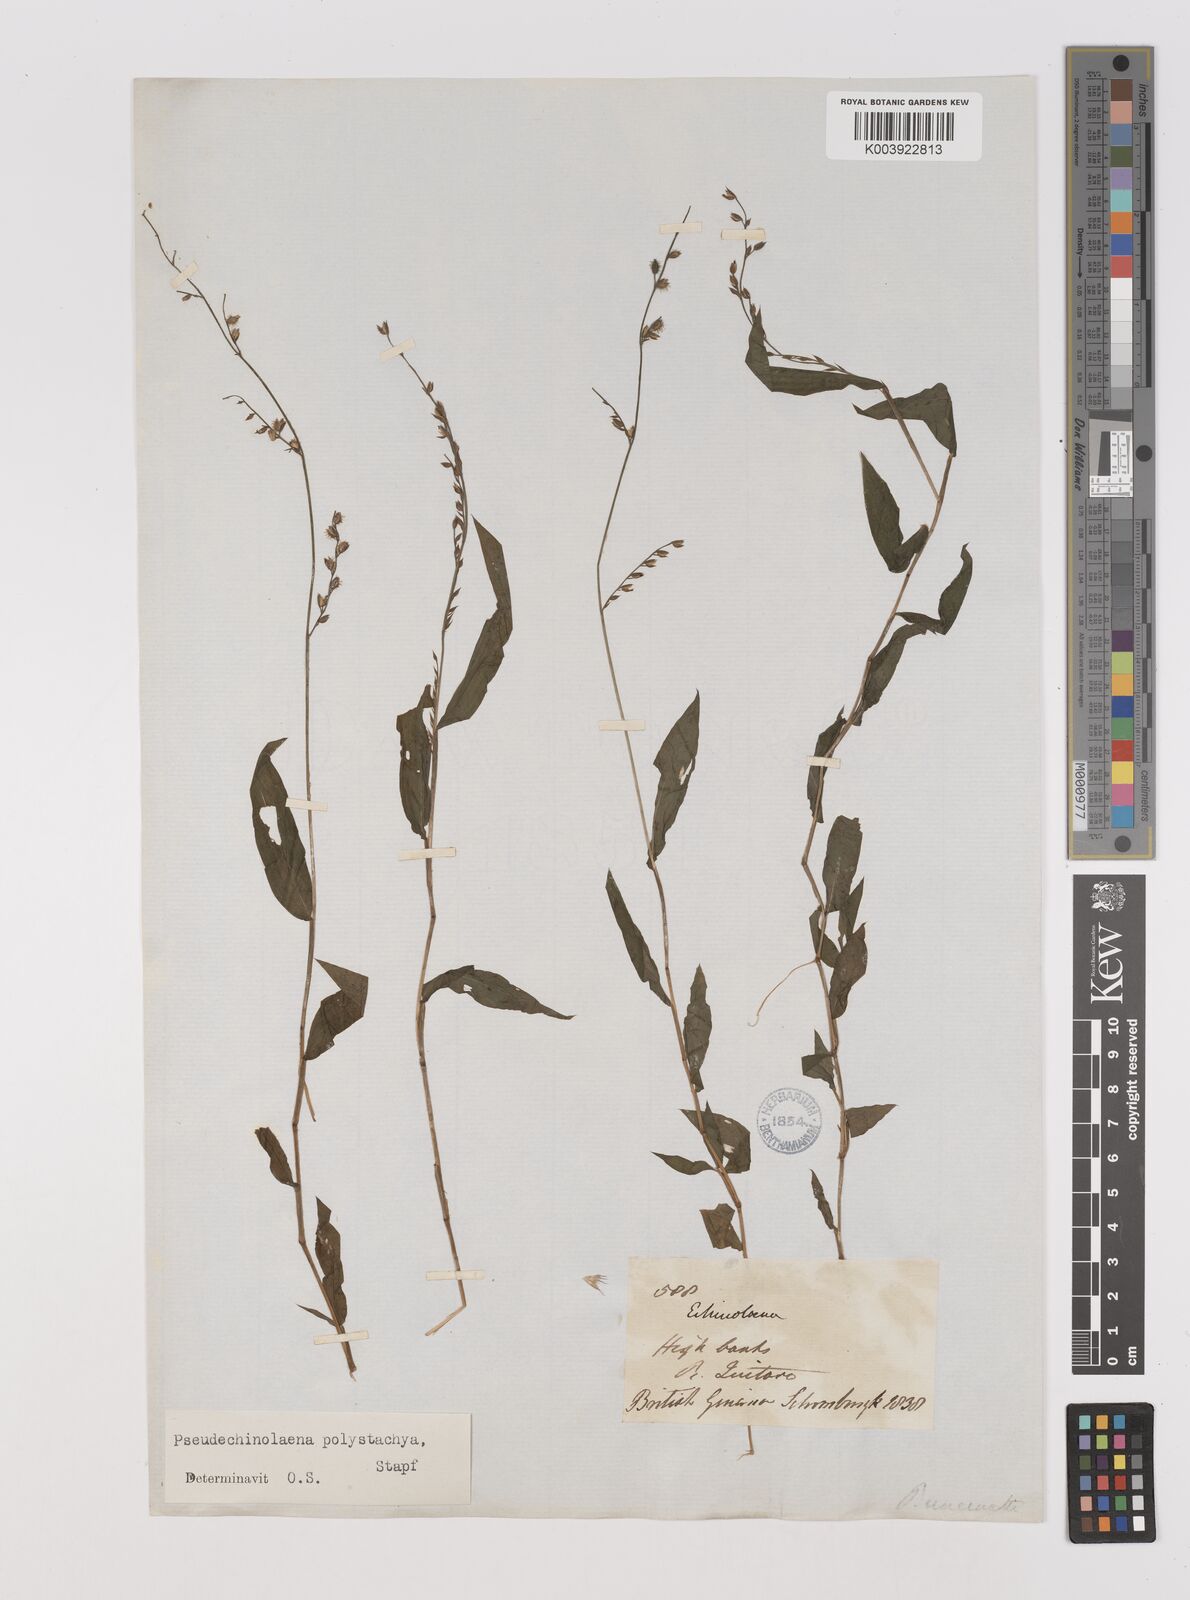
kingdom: Plantae
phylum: Tracheophyta
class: Liliopsida
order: Poales
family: Poaceae
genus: Pseudechinolaena
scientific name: Pseudechinolaena polystachya
